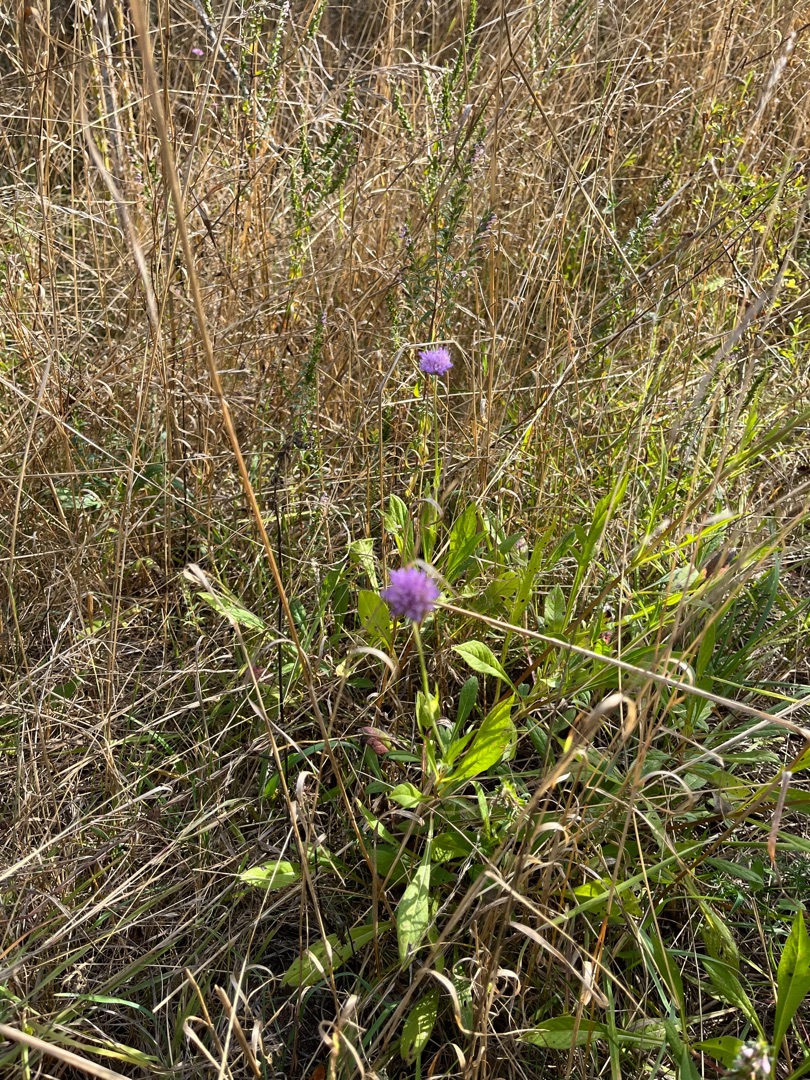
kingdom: Plantae
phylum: Tracheophyta
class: Magnoliopsida
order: Dipsacales
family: Caprifoliaceae
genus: Knautia
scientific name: Knautia arvensis
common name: Blåhat
